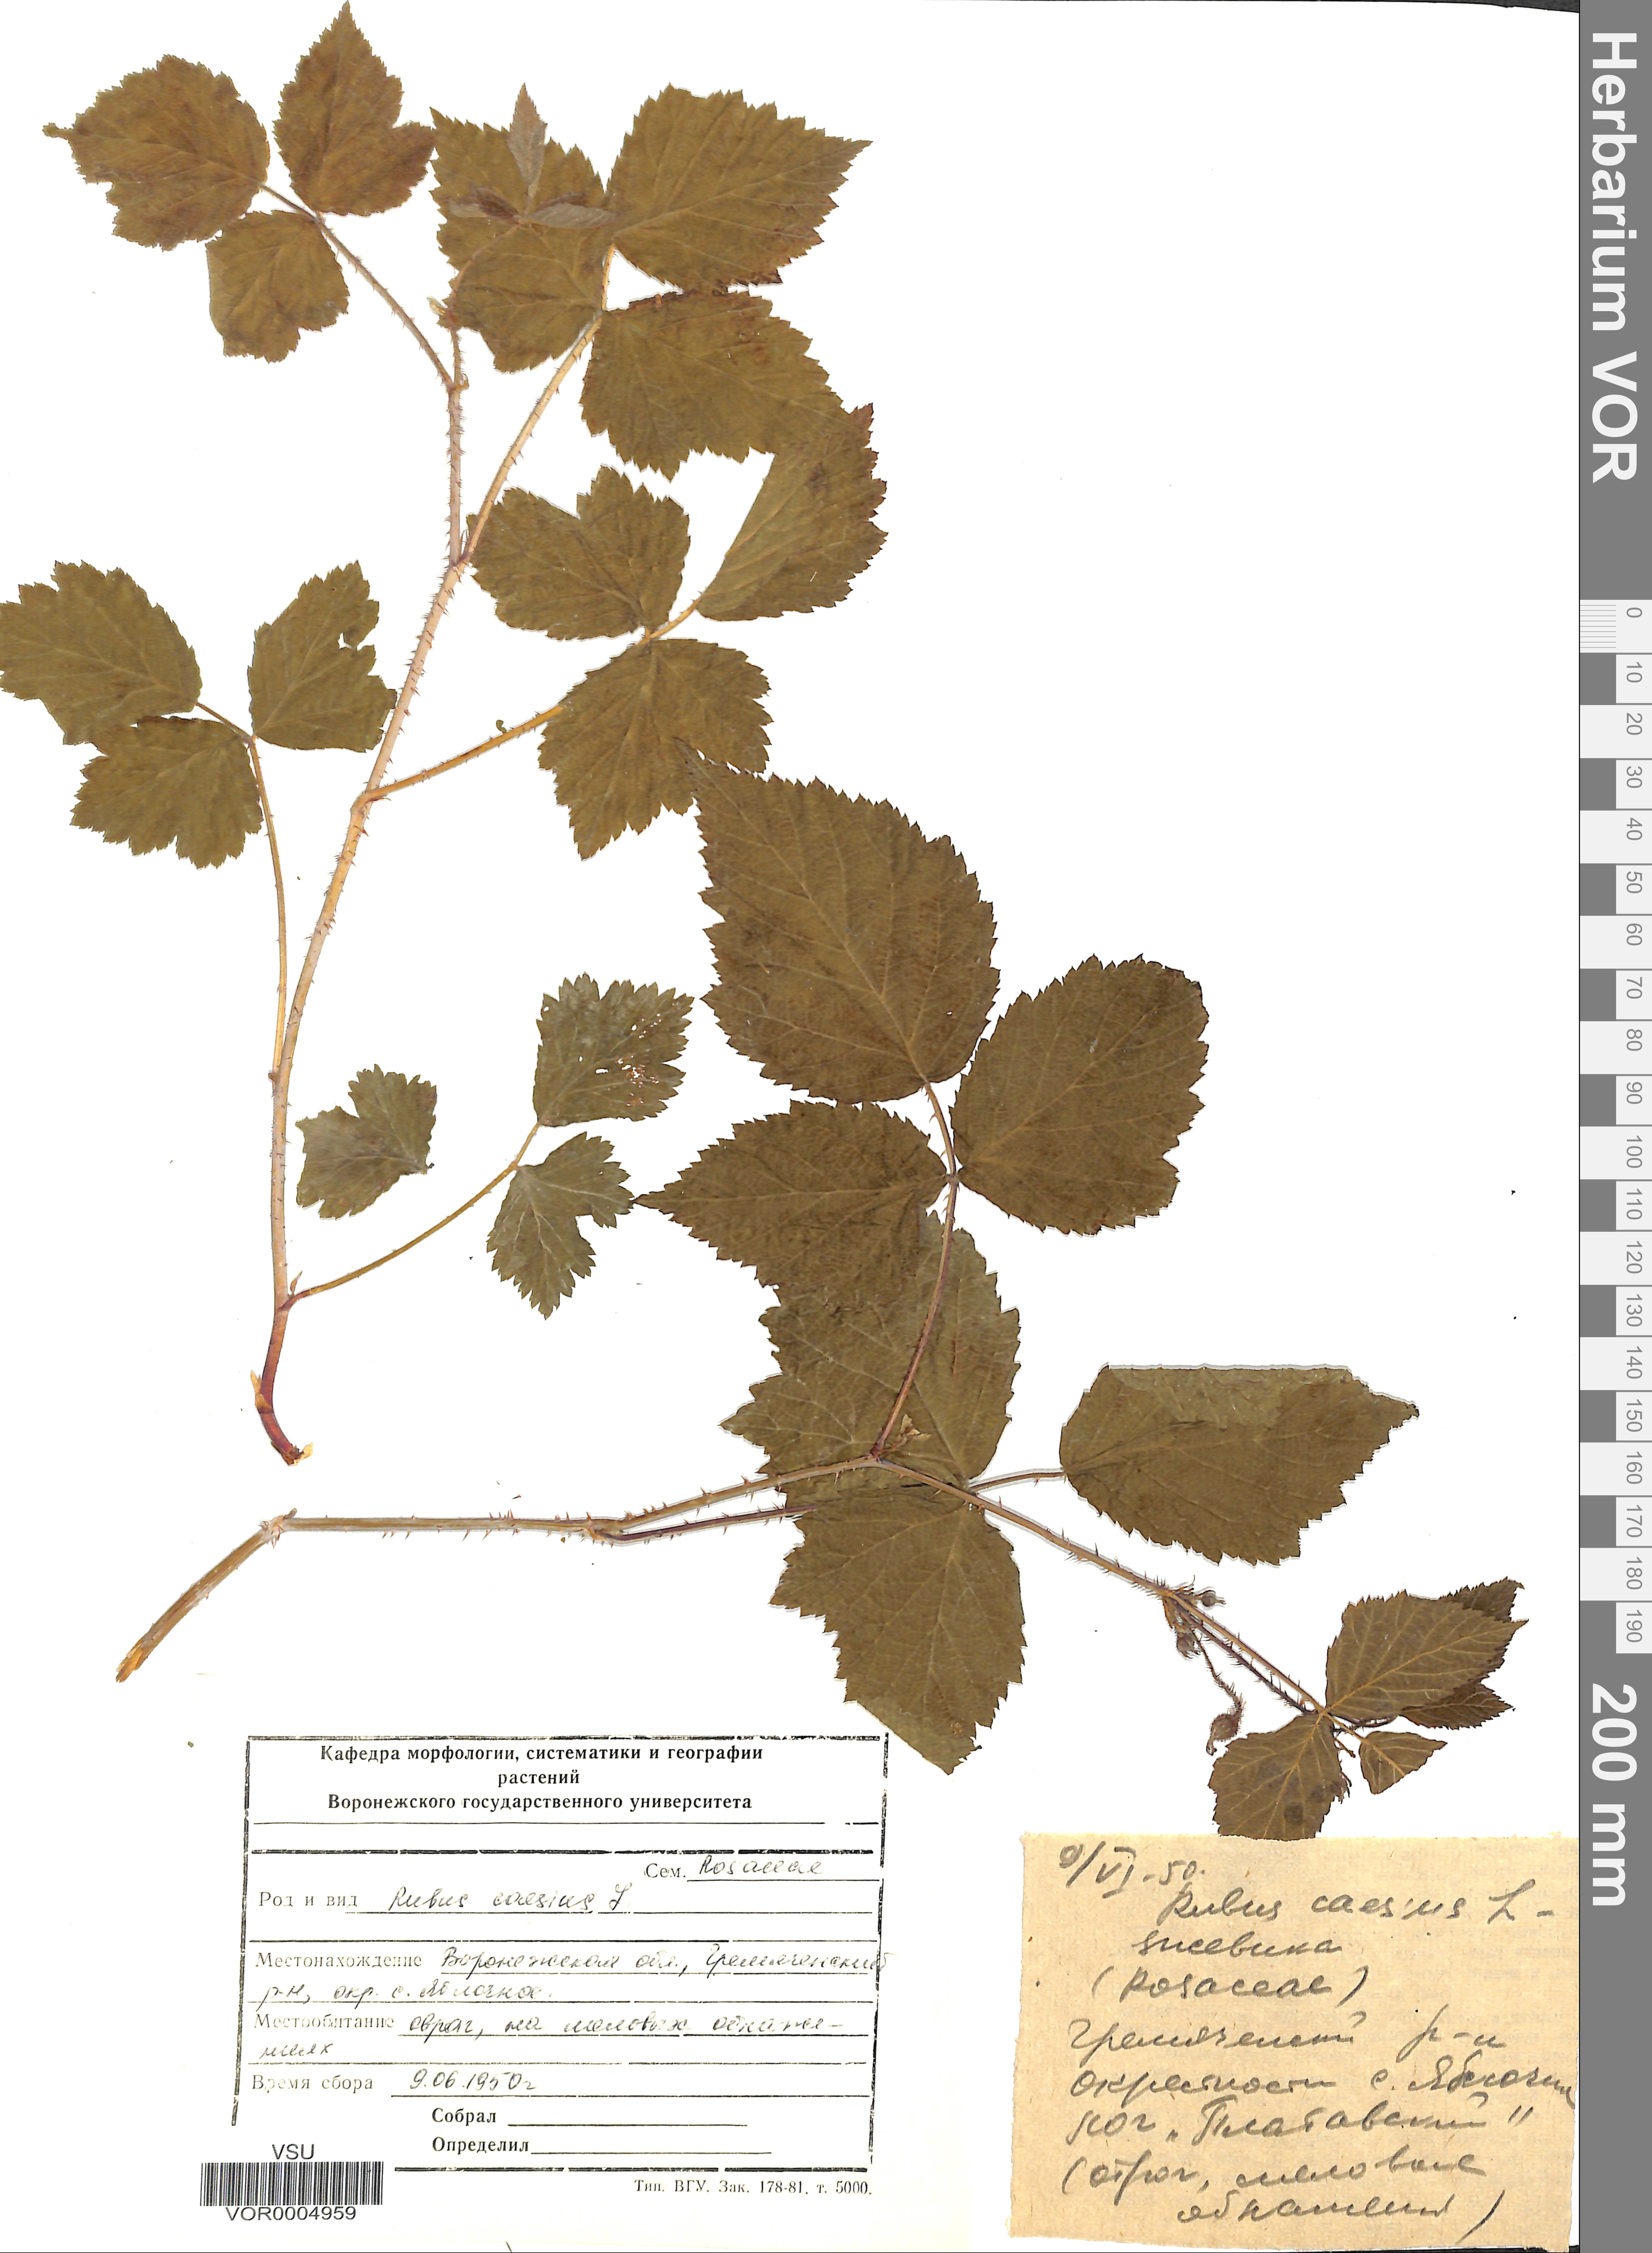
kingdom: Plantae
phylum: Tracheophyta
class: Magnoliopsida
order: Rosales
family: Rosaceae
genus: Rubus
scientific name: Rubus caesius
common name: Dewberry
